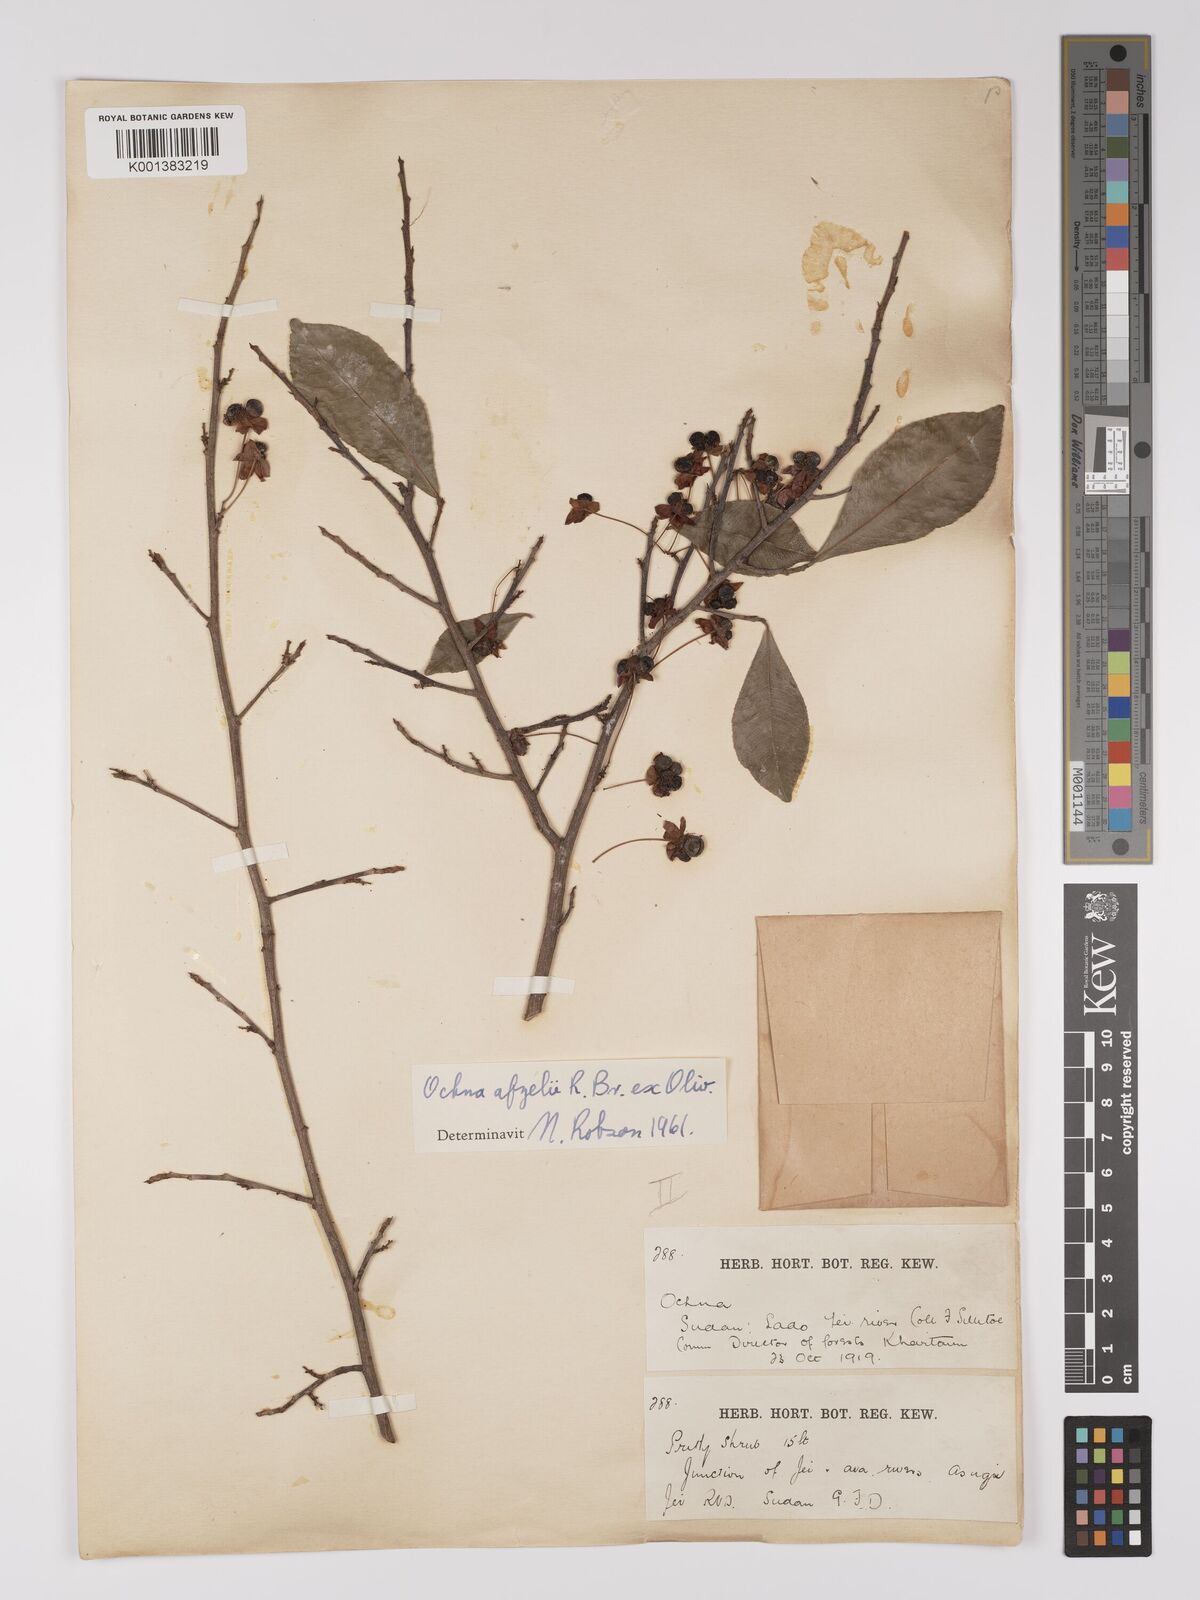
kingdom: Plantae
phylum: Tracheophyta
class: Magnoliopsida
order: Malpighiales
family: Ochnaceae
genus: Ochna
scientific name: Ochna afzelii
